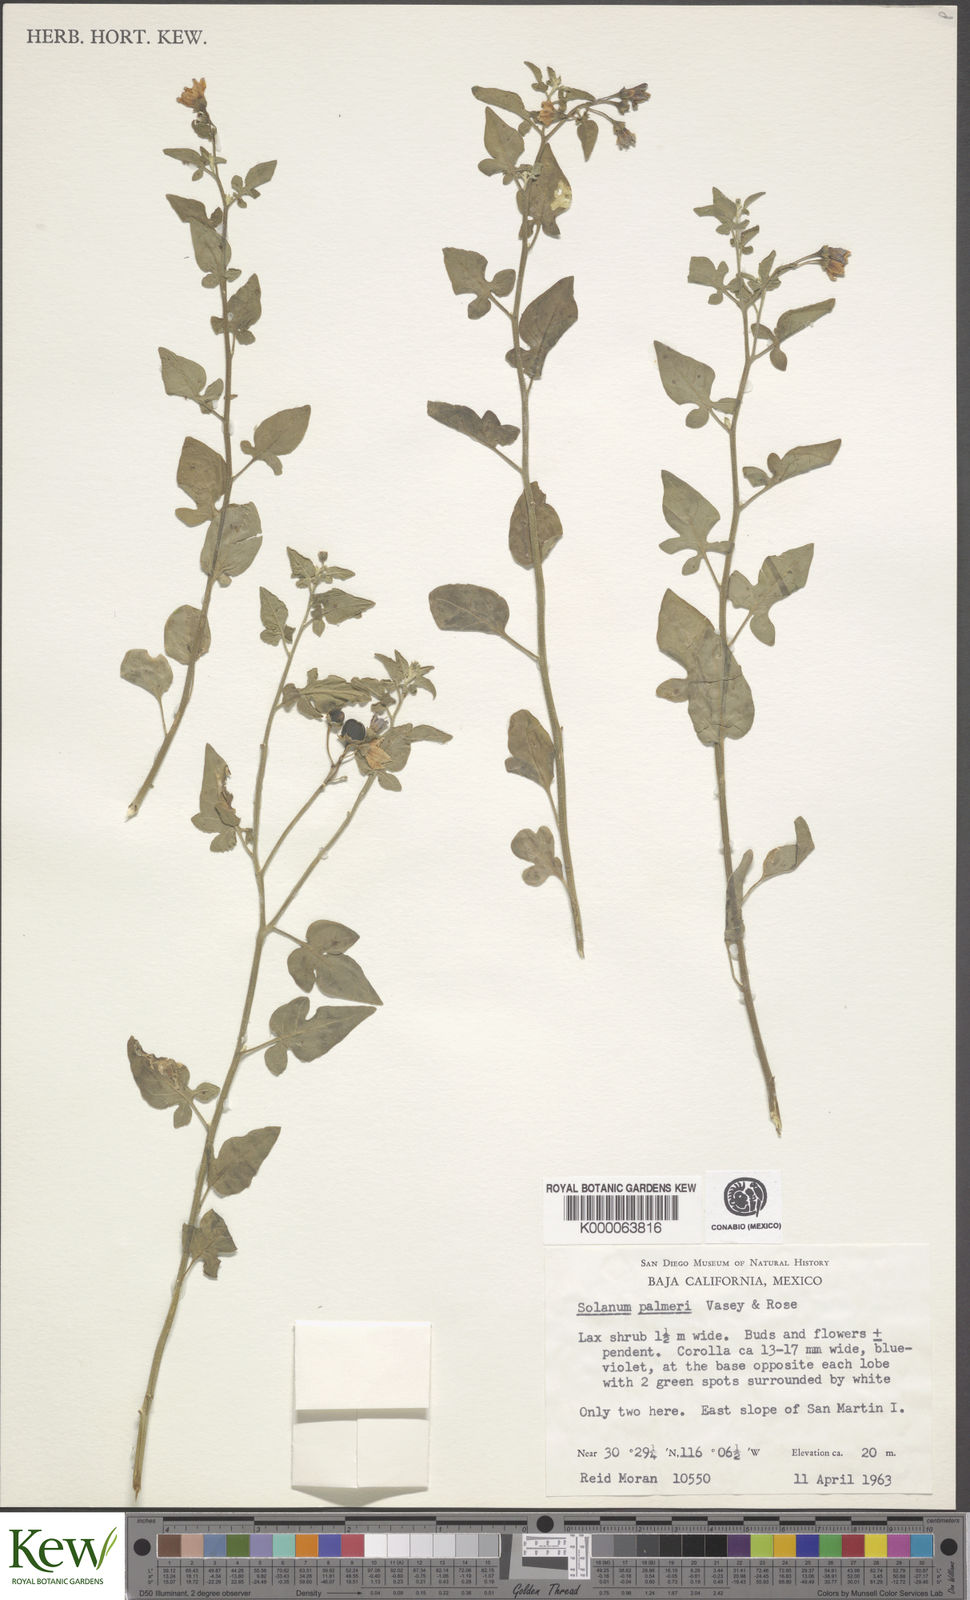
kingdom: Plantae
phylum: Tracheophyta
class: Magnoliopsida
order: Solanales
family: Solanaceae
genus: Solanum
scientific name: Solanum palmeri
